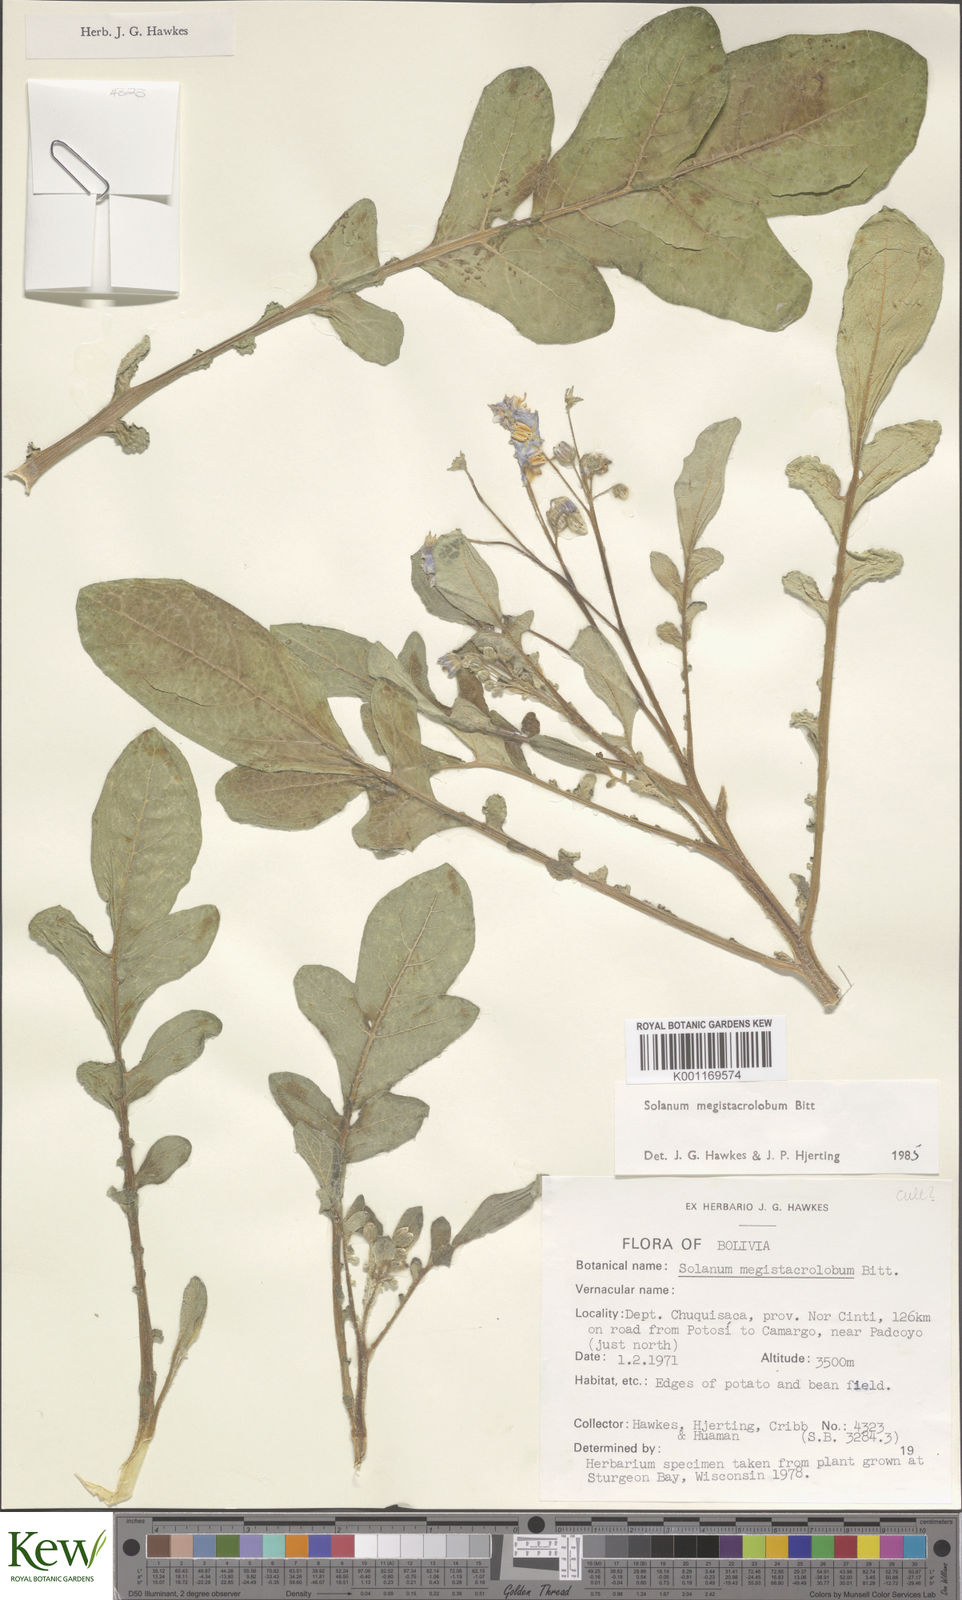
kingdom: Plantae
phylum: Tracheophyta
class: Magnoliopsida
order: Solanales
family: Solanaceae
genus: Solanum
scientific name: Solanum boliviense
